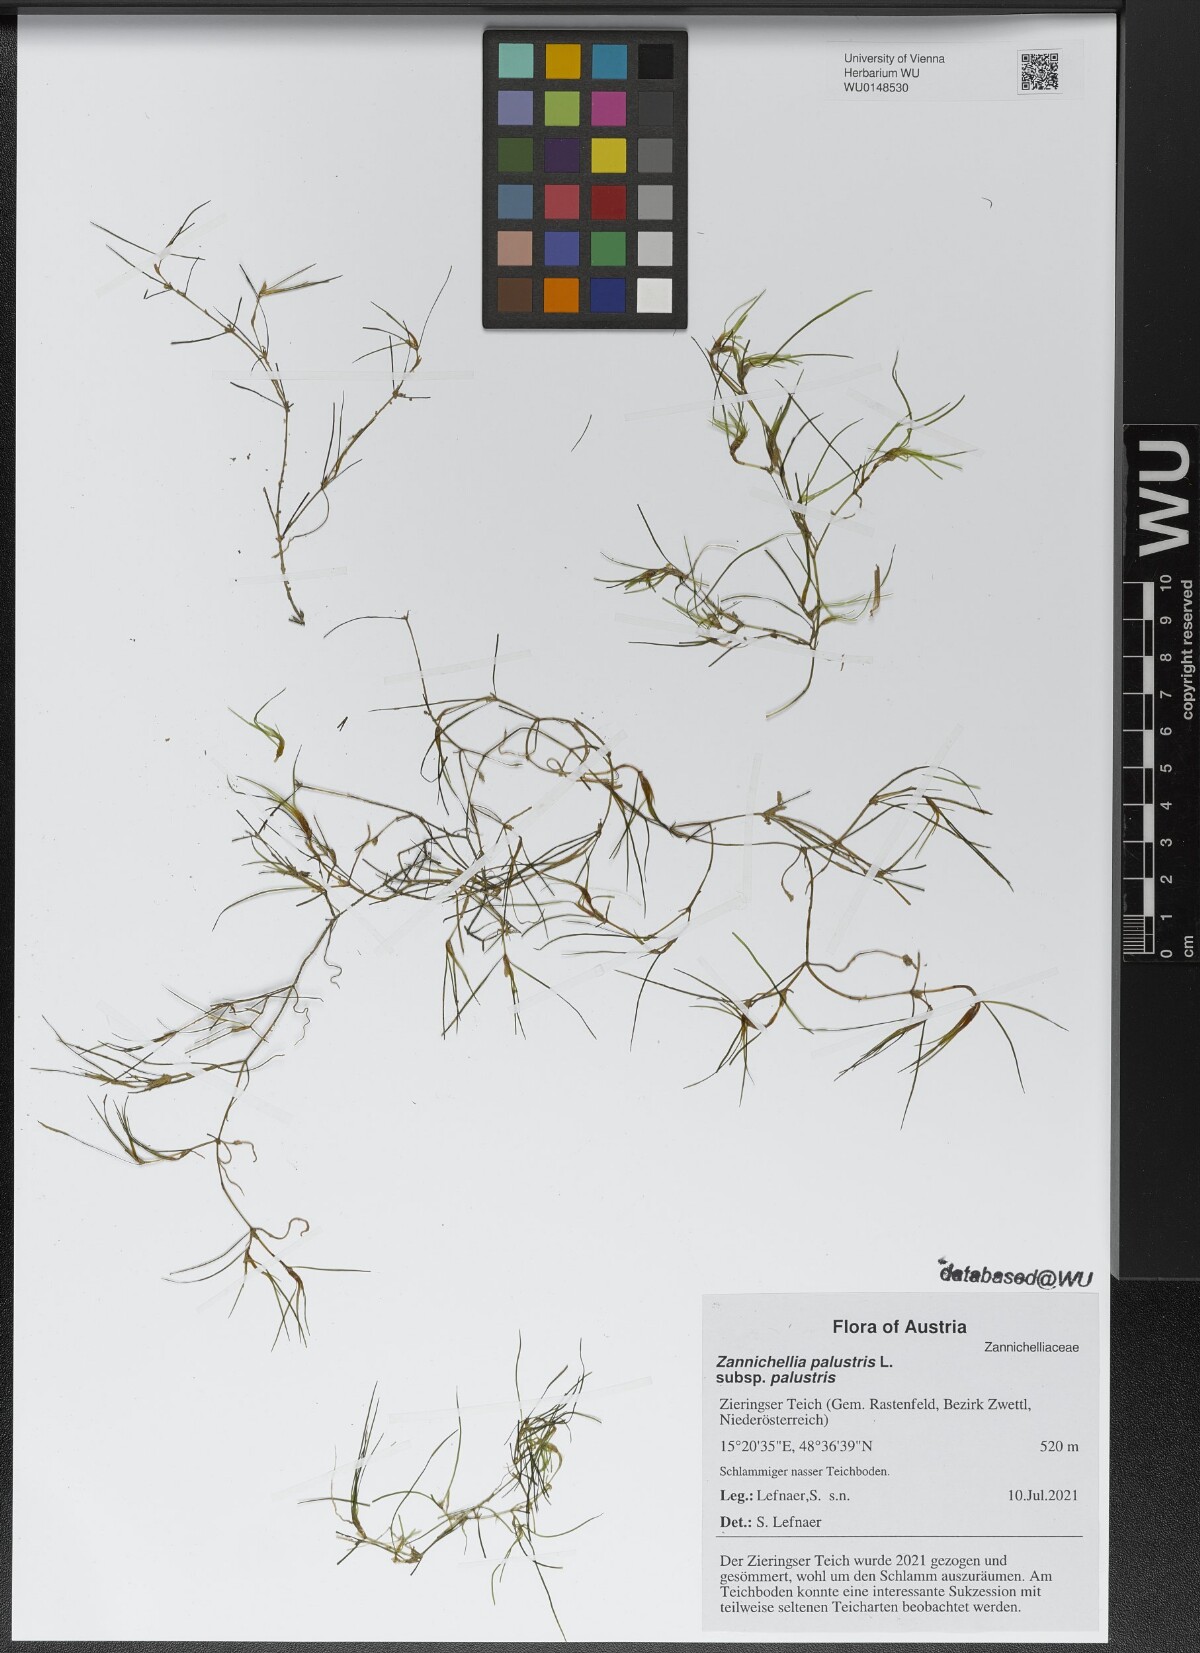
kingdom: Plantae
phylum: Tracheophyta
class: Liliopsida
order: Alismatales
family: Potamogetonaceae
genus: Zannichellia
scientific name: Zannichellia palustris
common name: Horned pondweed
